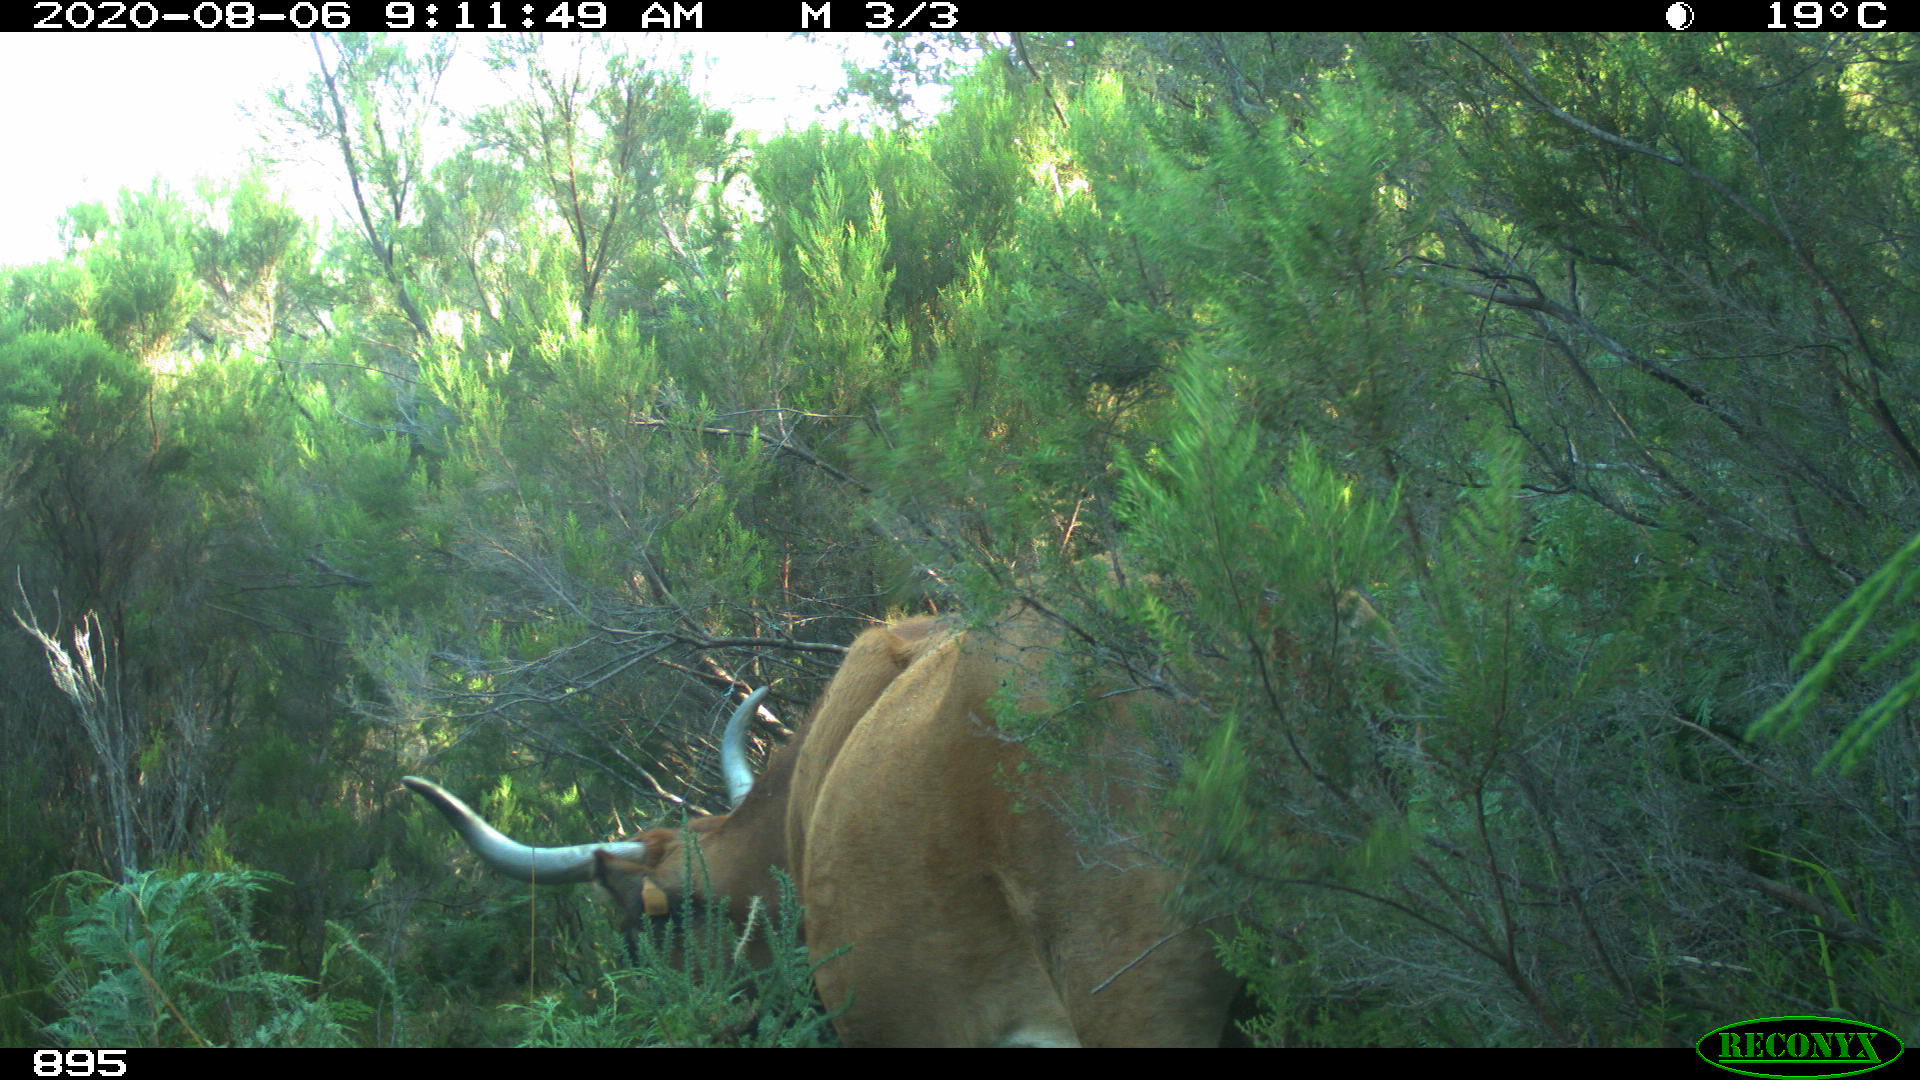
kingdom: Animalia
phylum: Chordata
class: Mammalia
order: Artiodactyla
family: Bovidae
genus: Bos
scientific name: Bos taurus
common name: Domesticated cattle
